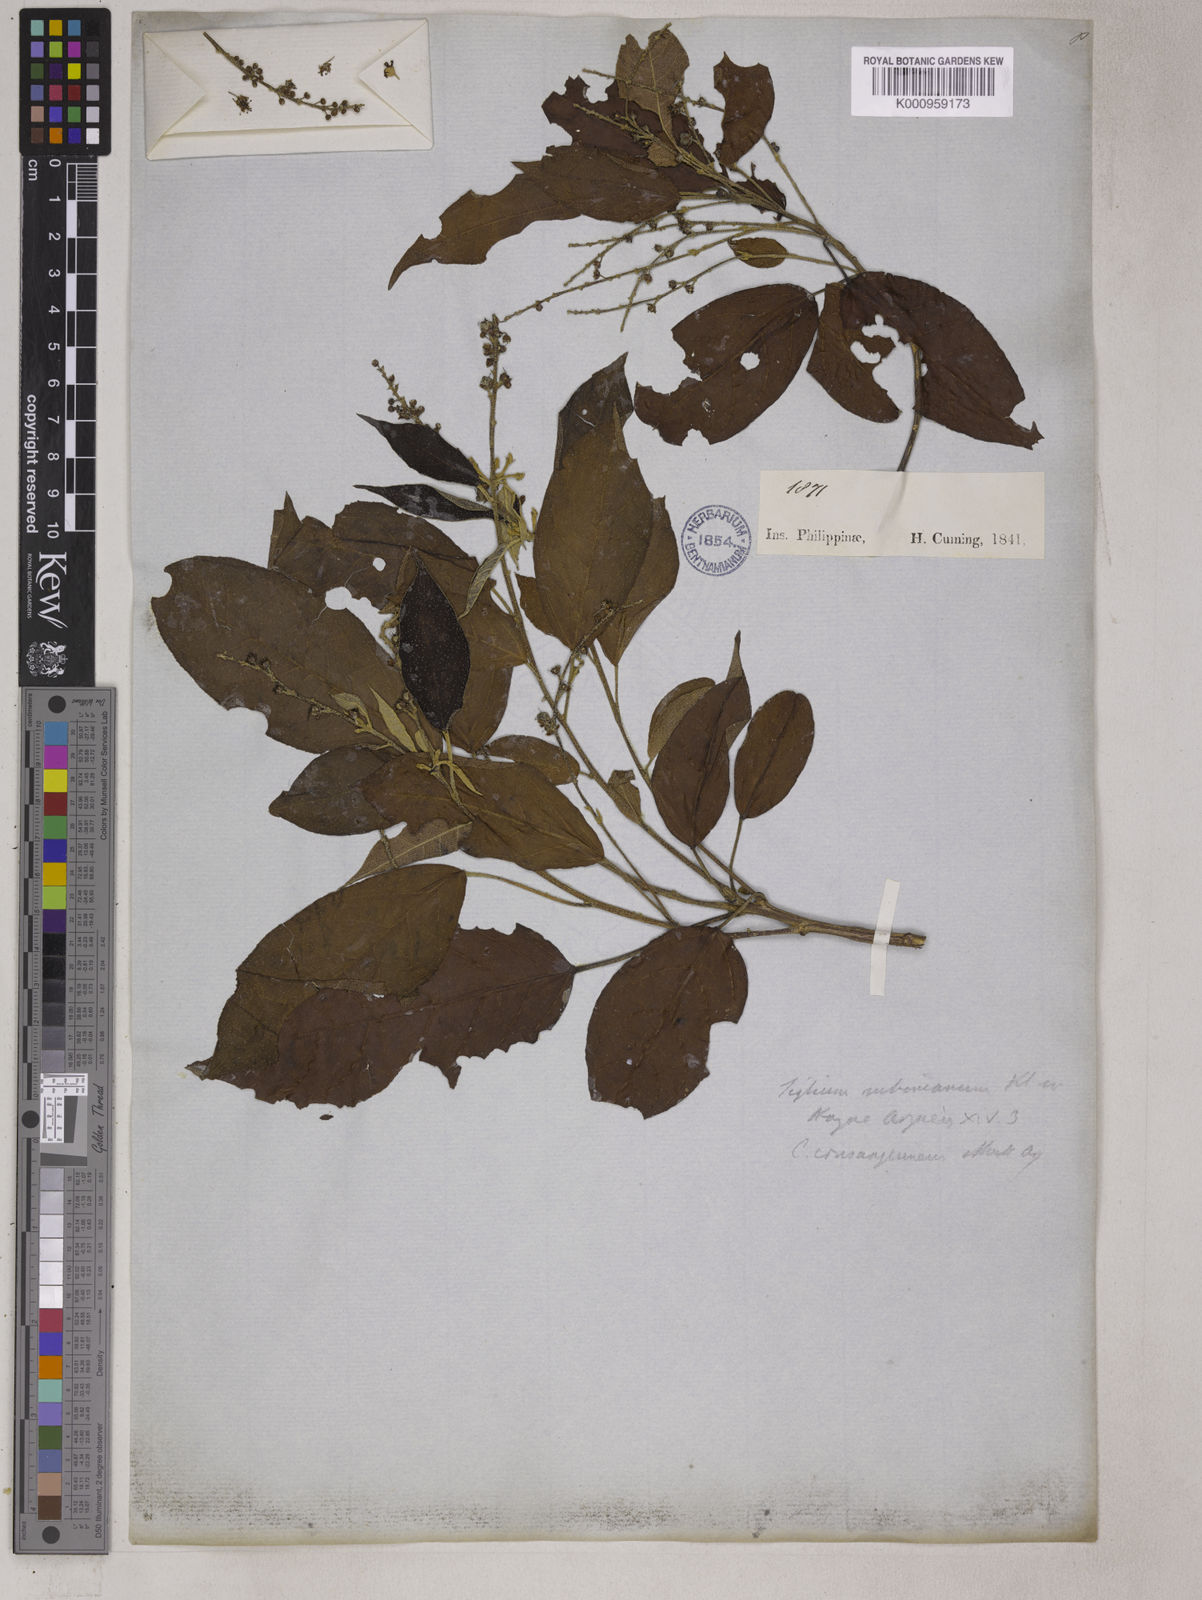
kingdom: Plantae
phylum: Tracheophyta
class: Magnoliopsida
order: Malpighiales
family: Euphorbiaceae
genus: Croton
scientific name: Croton
